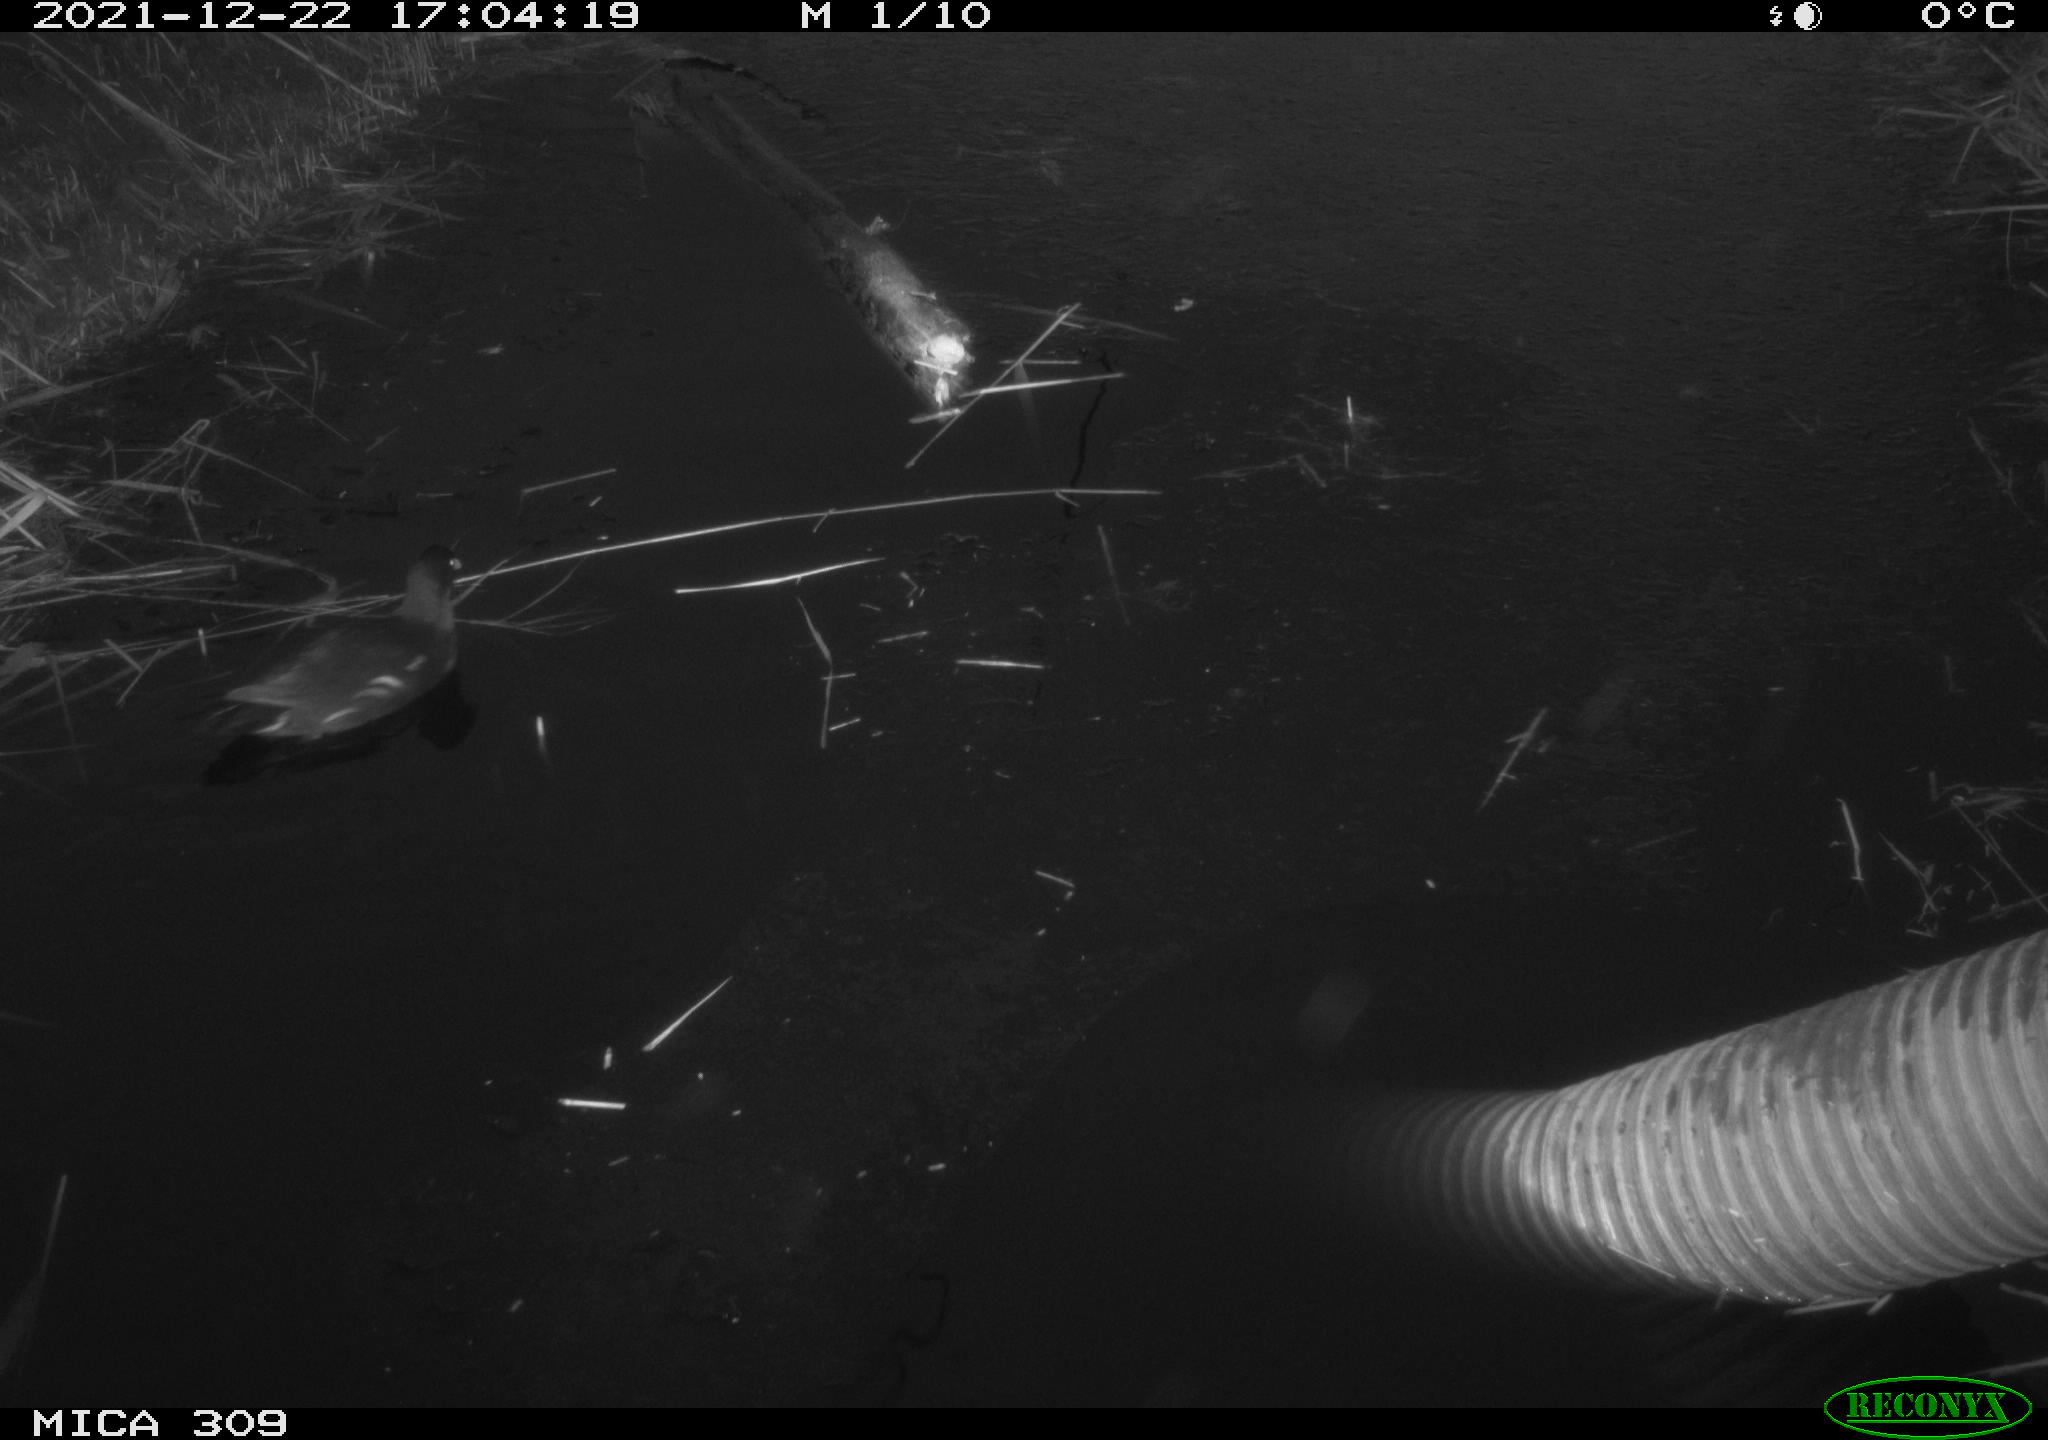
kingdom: Animalia
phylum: Chordata
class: Aves
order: Gruiformes
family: Rallidae
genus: Gallinula
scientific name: Gallinula chloropus
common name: Common moorhen
